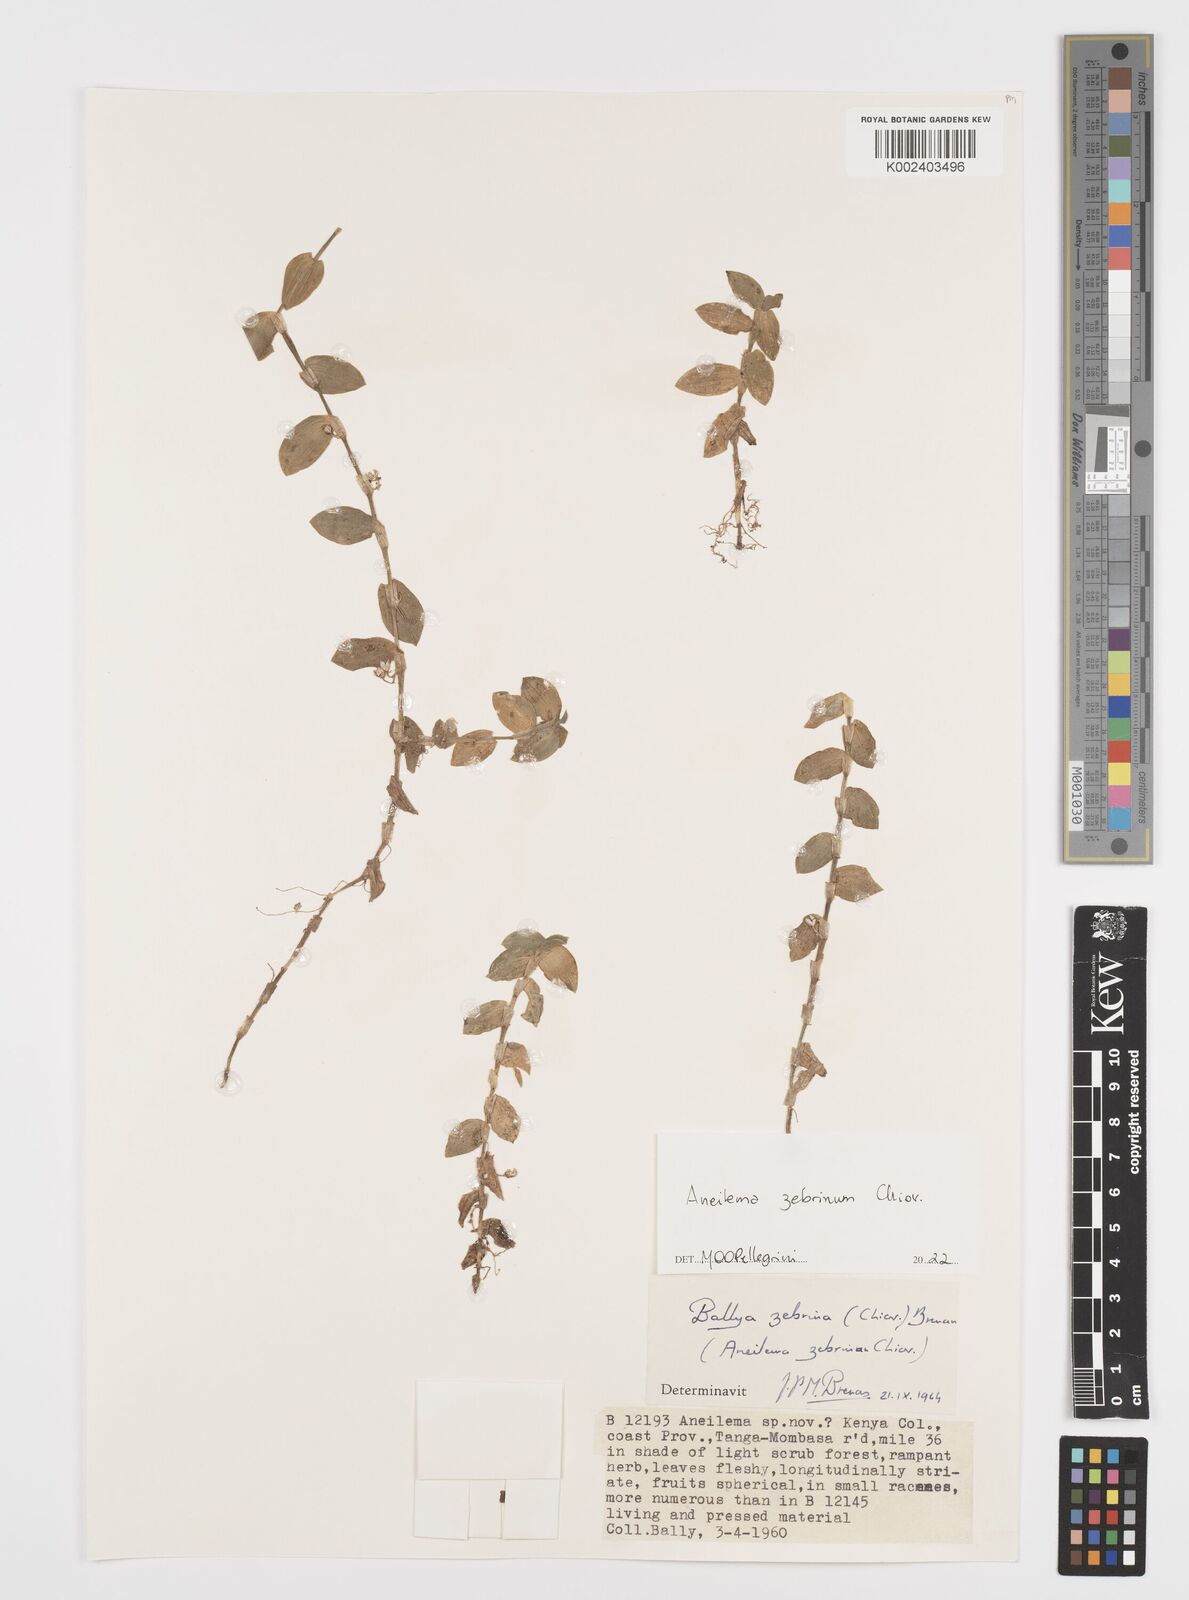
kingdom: Plantae
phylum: Tracheophyta
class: Liliopsida
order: Commelinales
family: Commelinaceae
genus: Aneilema
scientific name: Aneilema zebrinum
